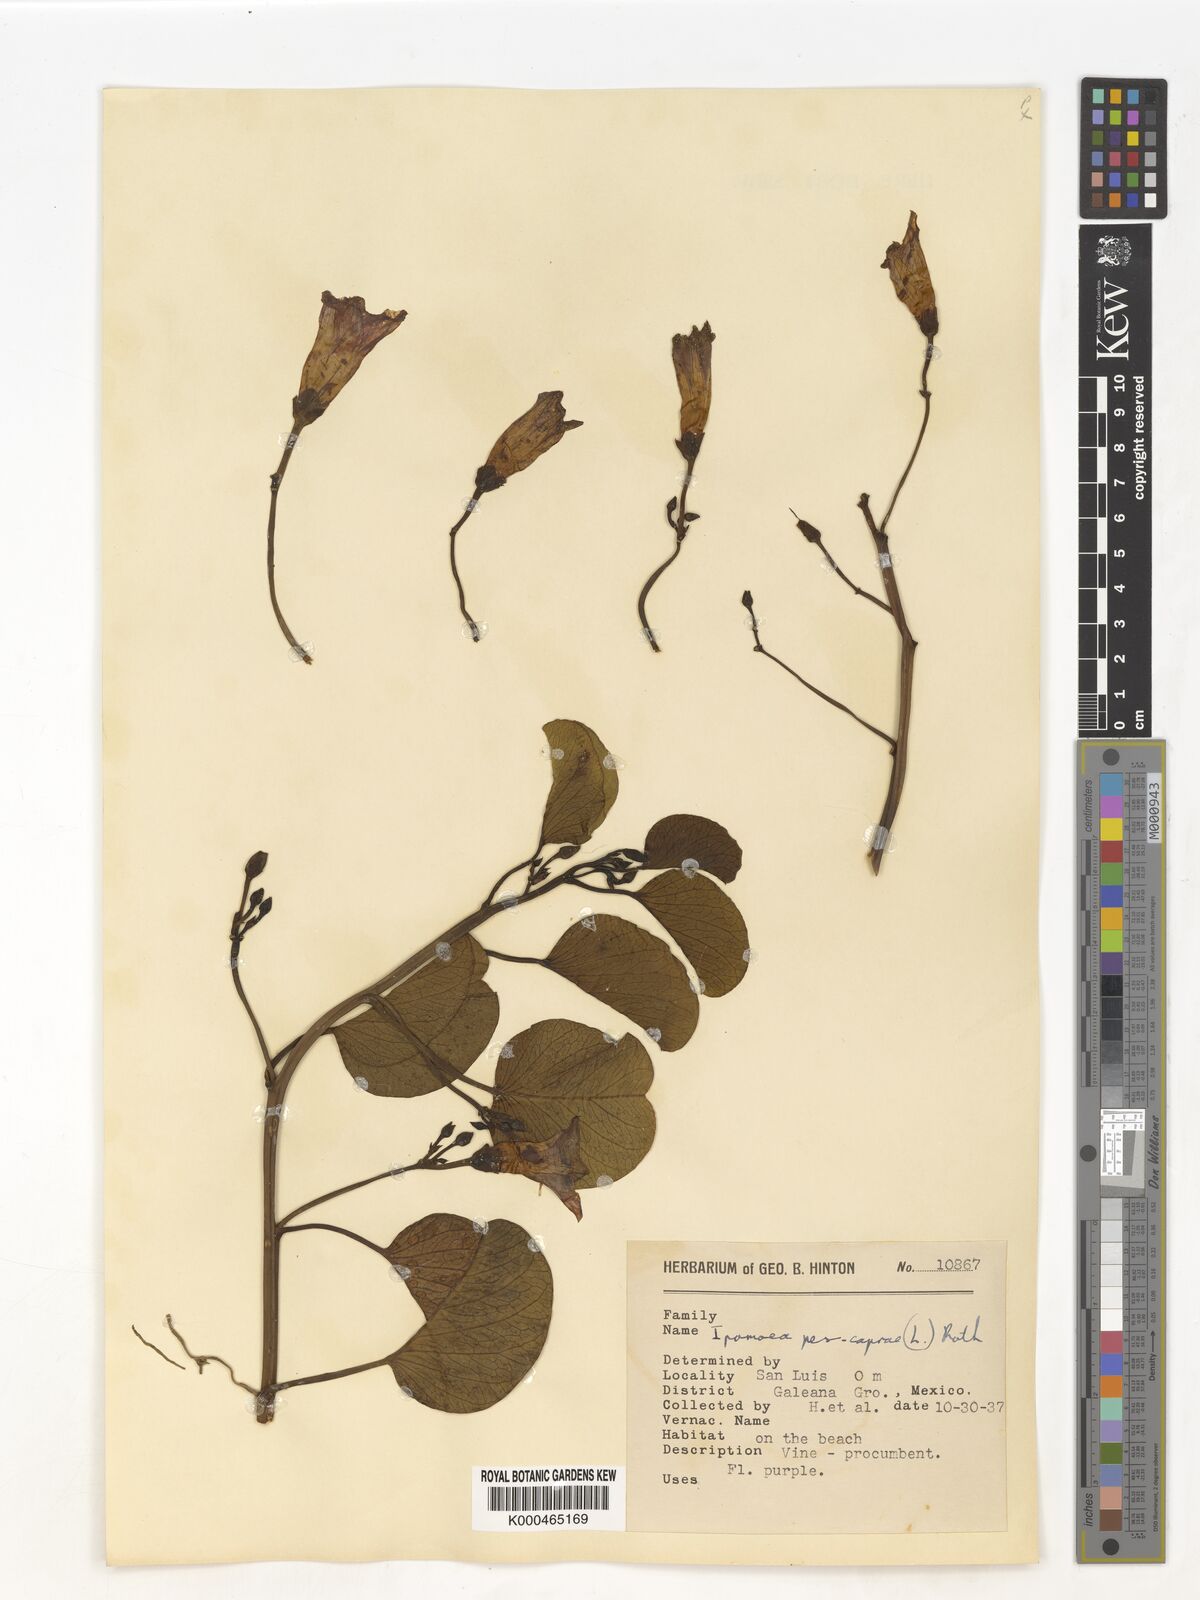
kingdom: Plantae
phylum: Tracheophyta
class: Magnoliopsida
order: Solanales
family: Convolvulaceae
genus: Ipomoea
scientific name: Ipomoea pes-caprae
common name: Beach morning glory
